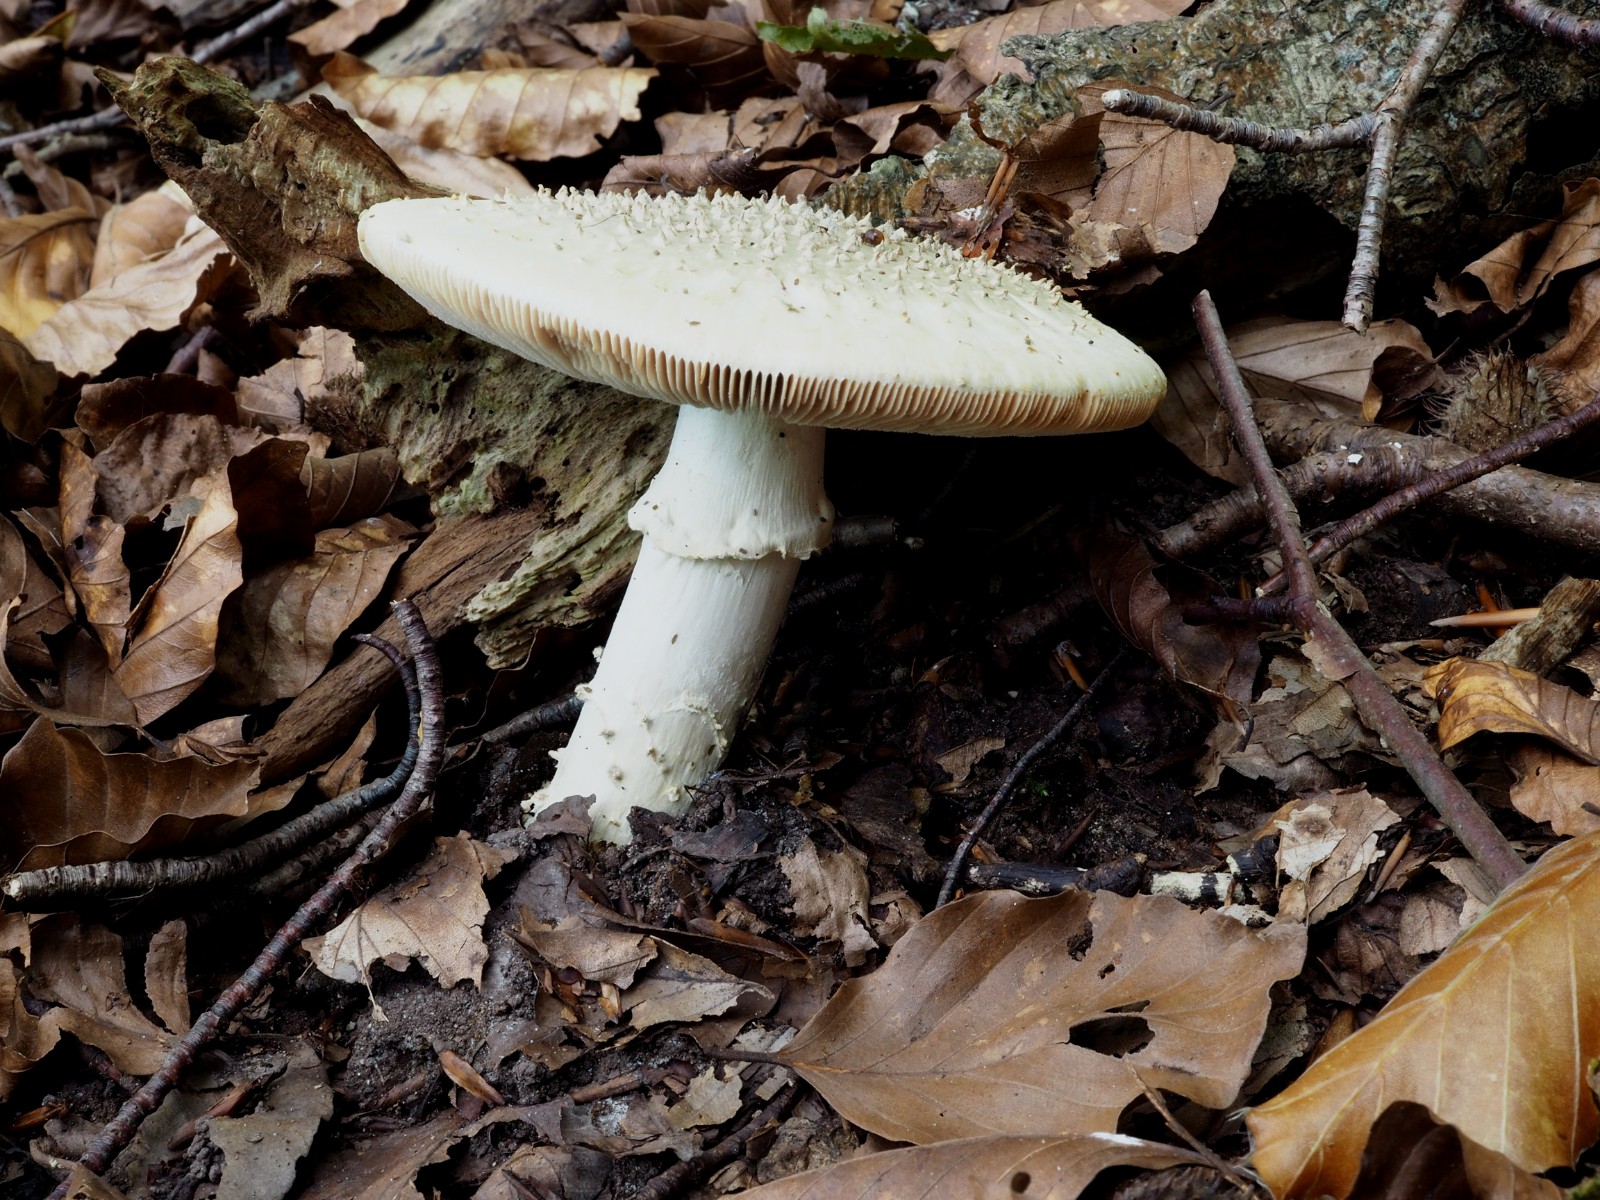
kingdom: Fungi
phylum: Basidiomycota
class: Agaricomycetes
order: Agaricales
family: Amanitaceae
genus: Aspidella
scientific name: Aspidella solitaria
